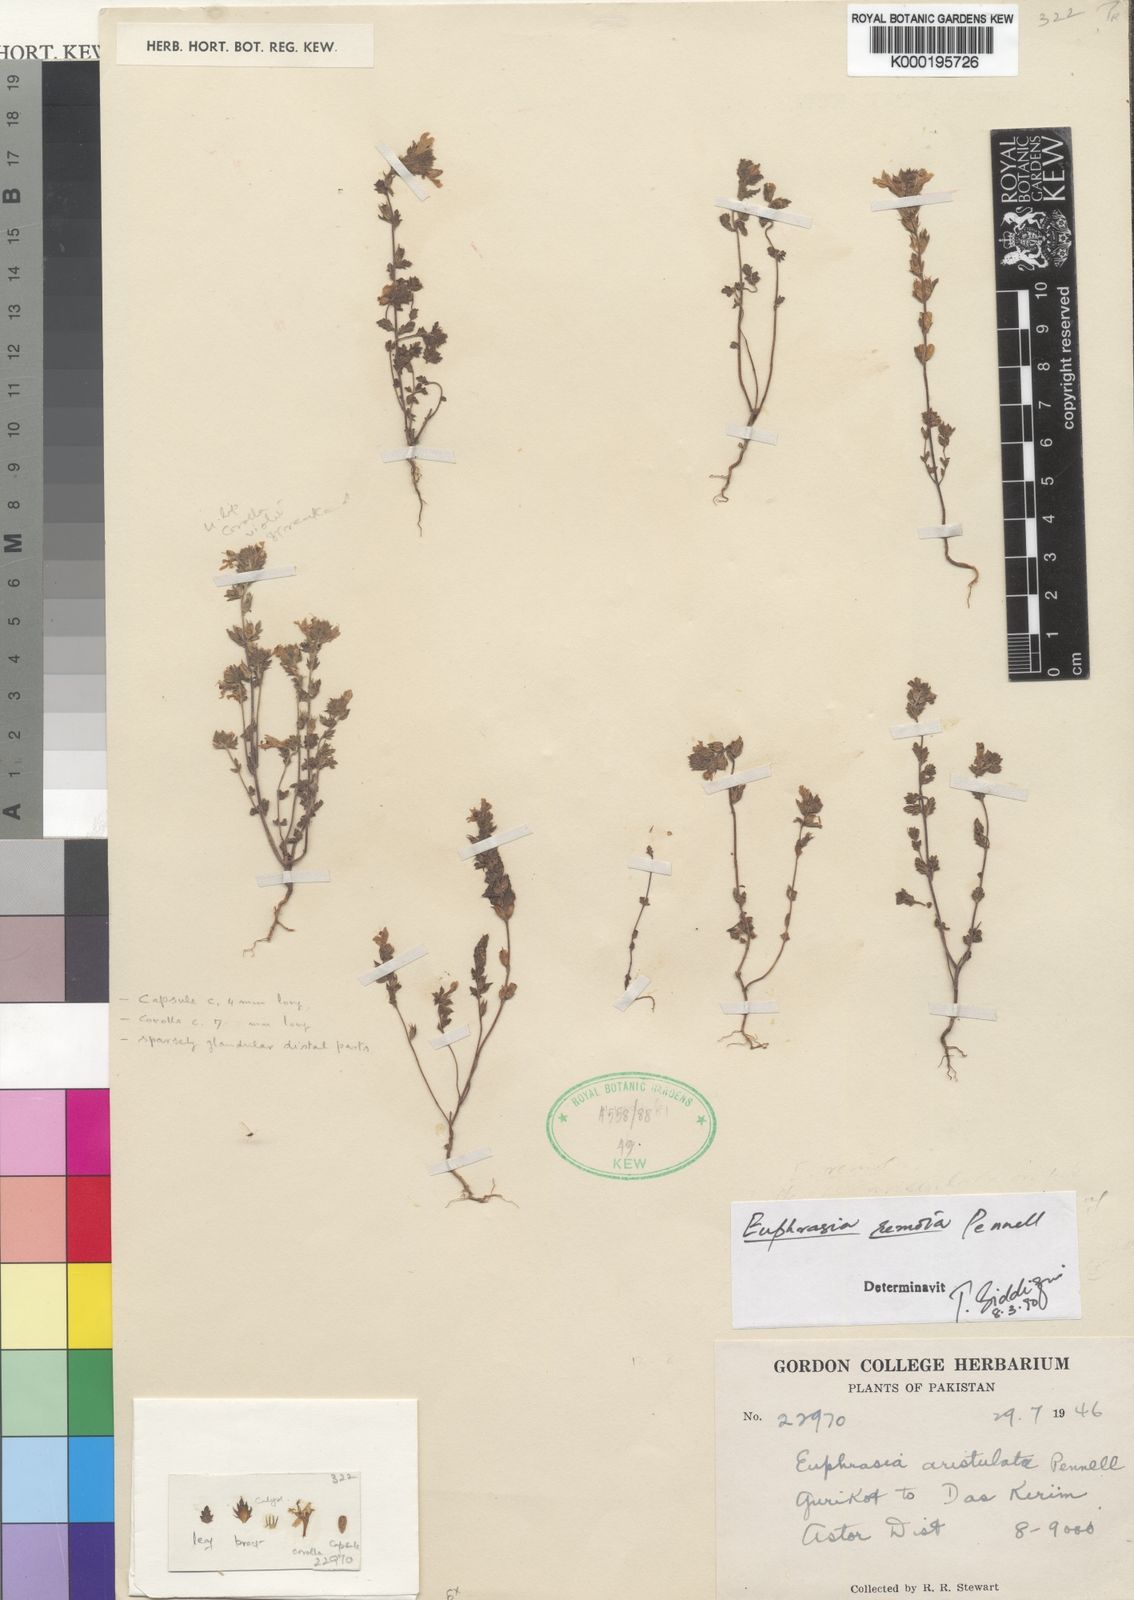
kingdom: Plantae
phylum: Tracheophyta
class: Magnoliopsida
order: Lamiales
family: Orobanchaceae
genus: Euphrasia
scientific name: Euphrasia remota
